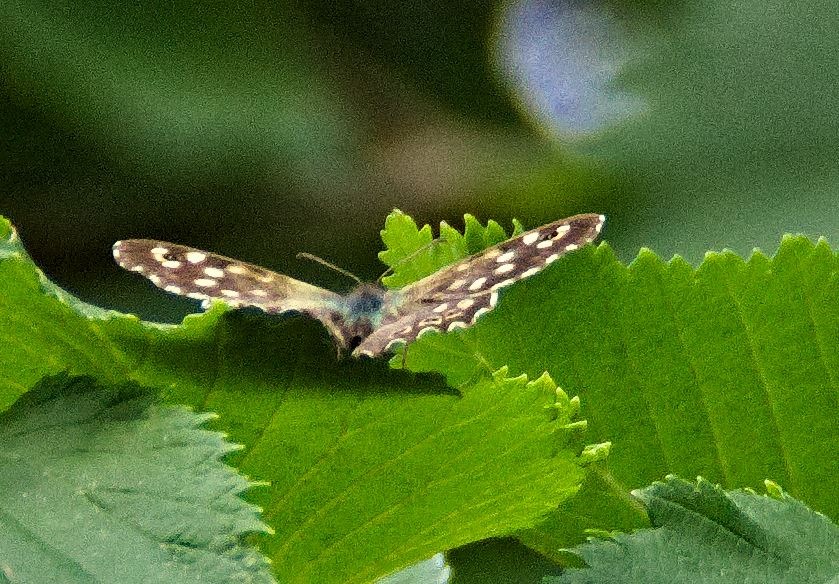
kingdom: Animalia
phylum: Arthropoda
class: Insecta
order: Lepidoptera
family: Nymphalidae
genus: Pararge
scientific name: Pararge aegeria
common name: Skovrandøje
